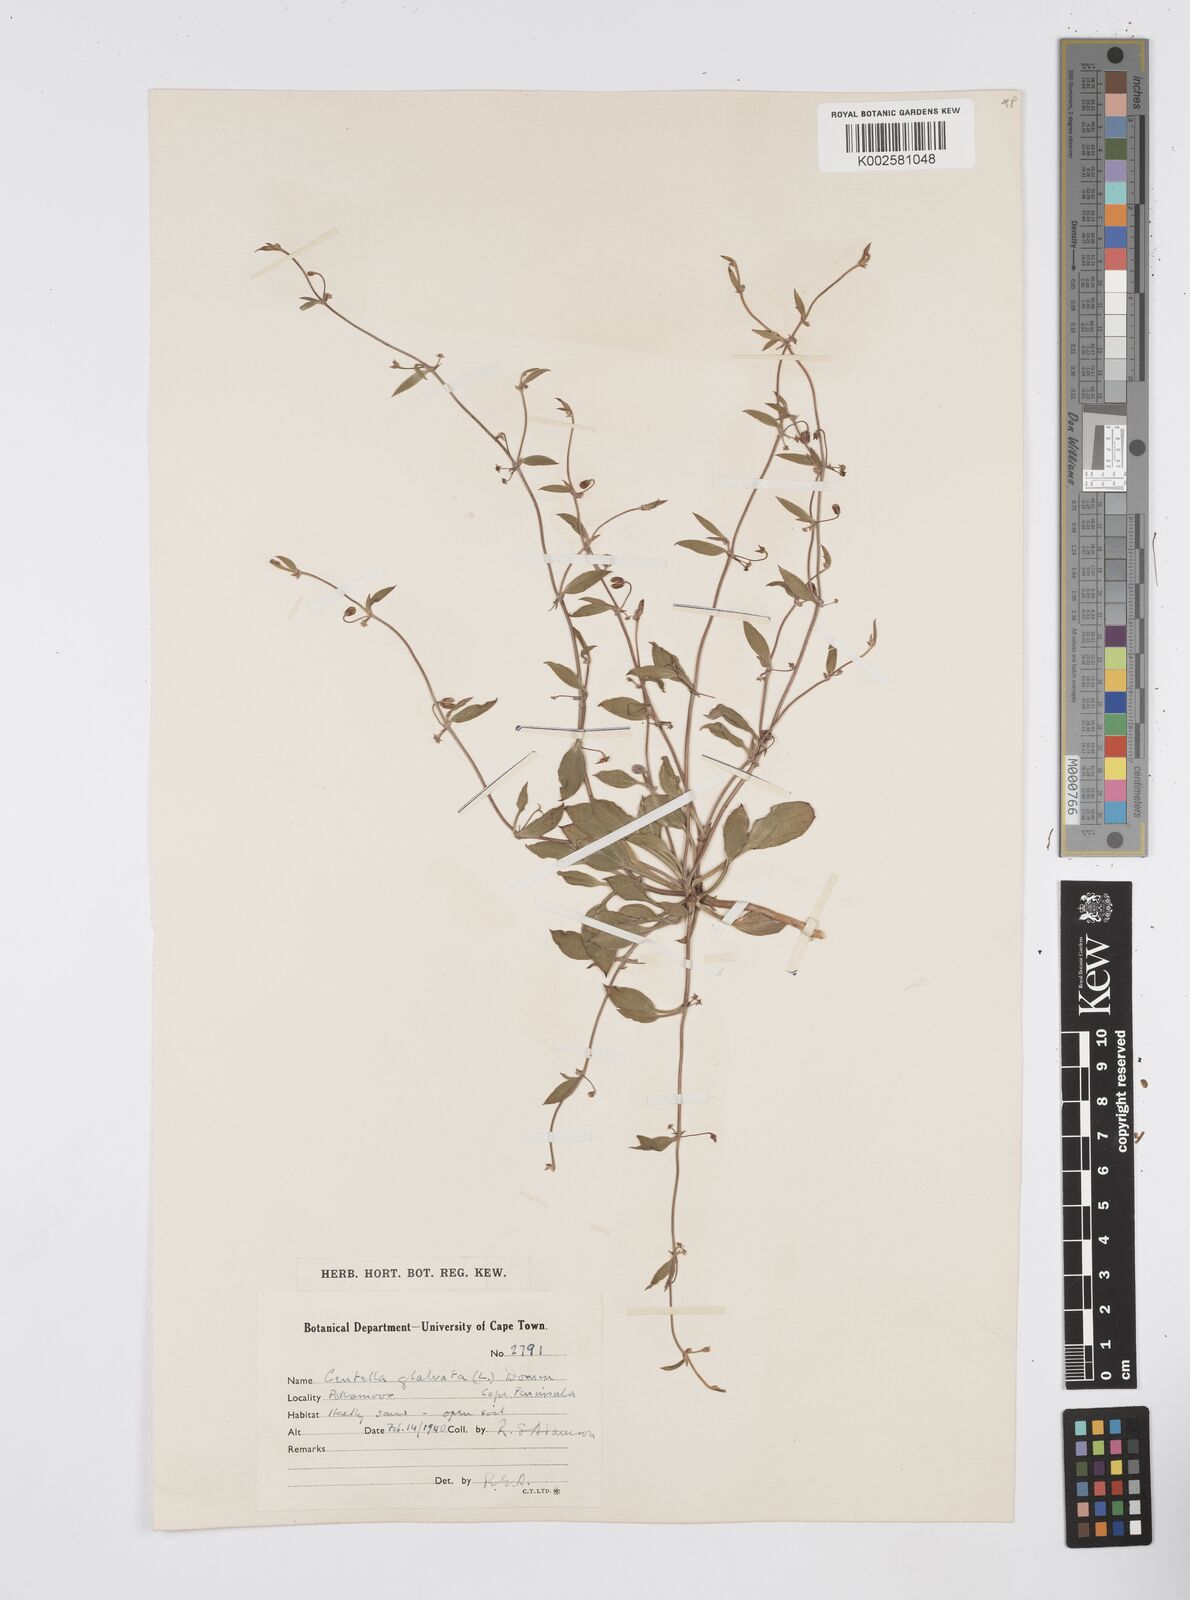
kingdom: Plantae
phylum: Tracheophyta
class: Magnoliopsida
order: Apiales
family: Apiaceae
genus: Centella
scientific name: Centella glabrata
